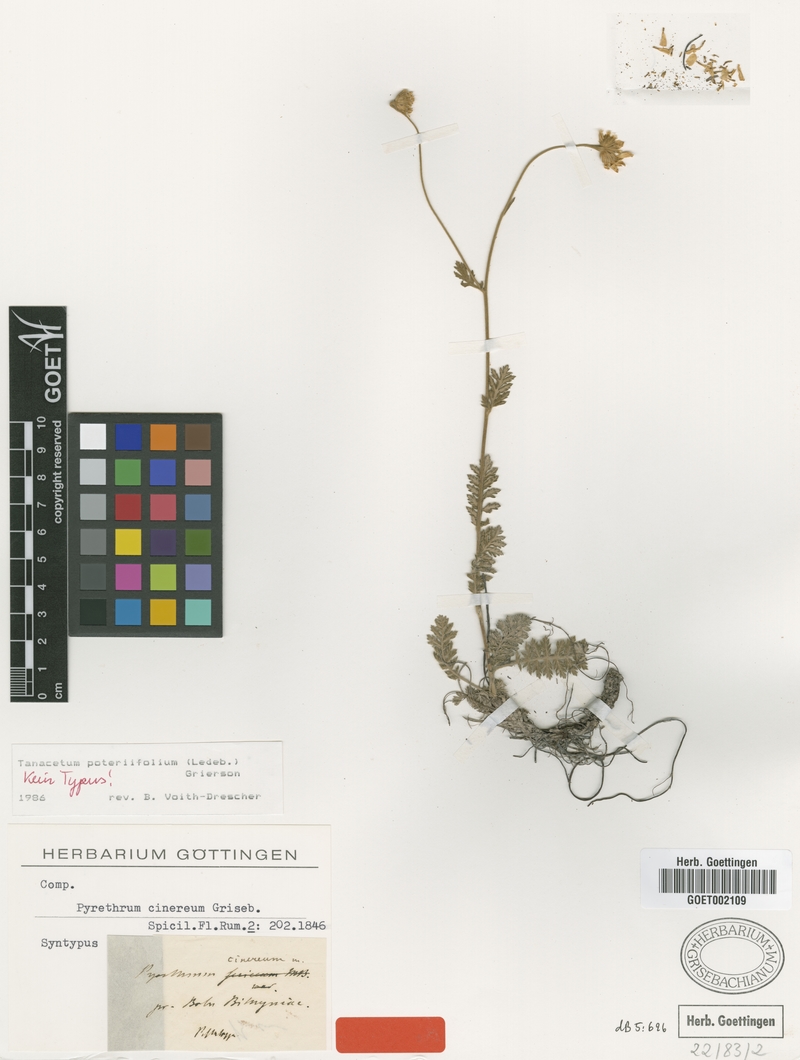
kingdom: Plantae
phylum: Tracheophyta
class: Magnoliopsida
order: Asterales
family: Asteraceae
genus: Tanacetum
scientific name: Tanacetum poteriifolium
